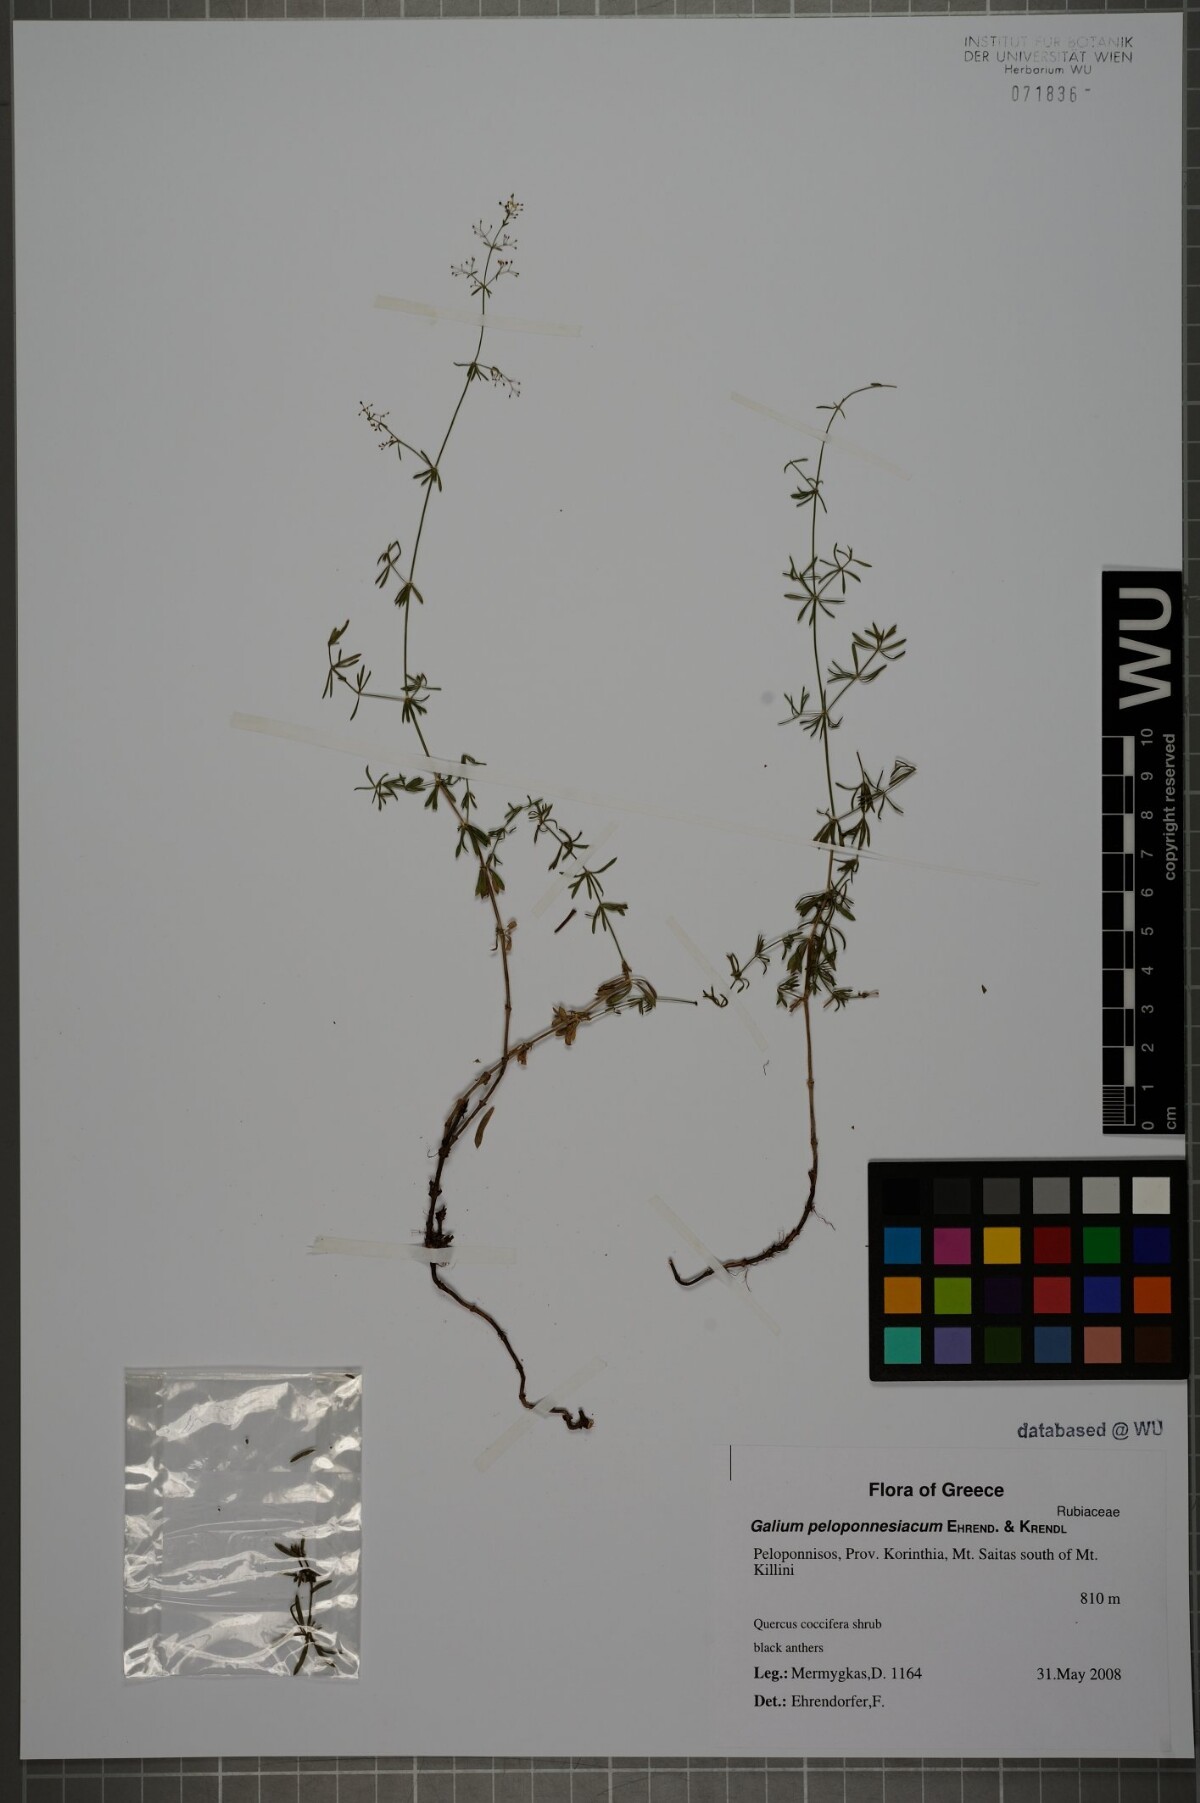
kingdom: Plantae
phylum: Tracheophyta
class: Magnoliopsida
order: Gentianales
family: Rubiaceae
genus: Galium
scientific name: Galium peloponnesiacum
